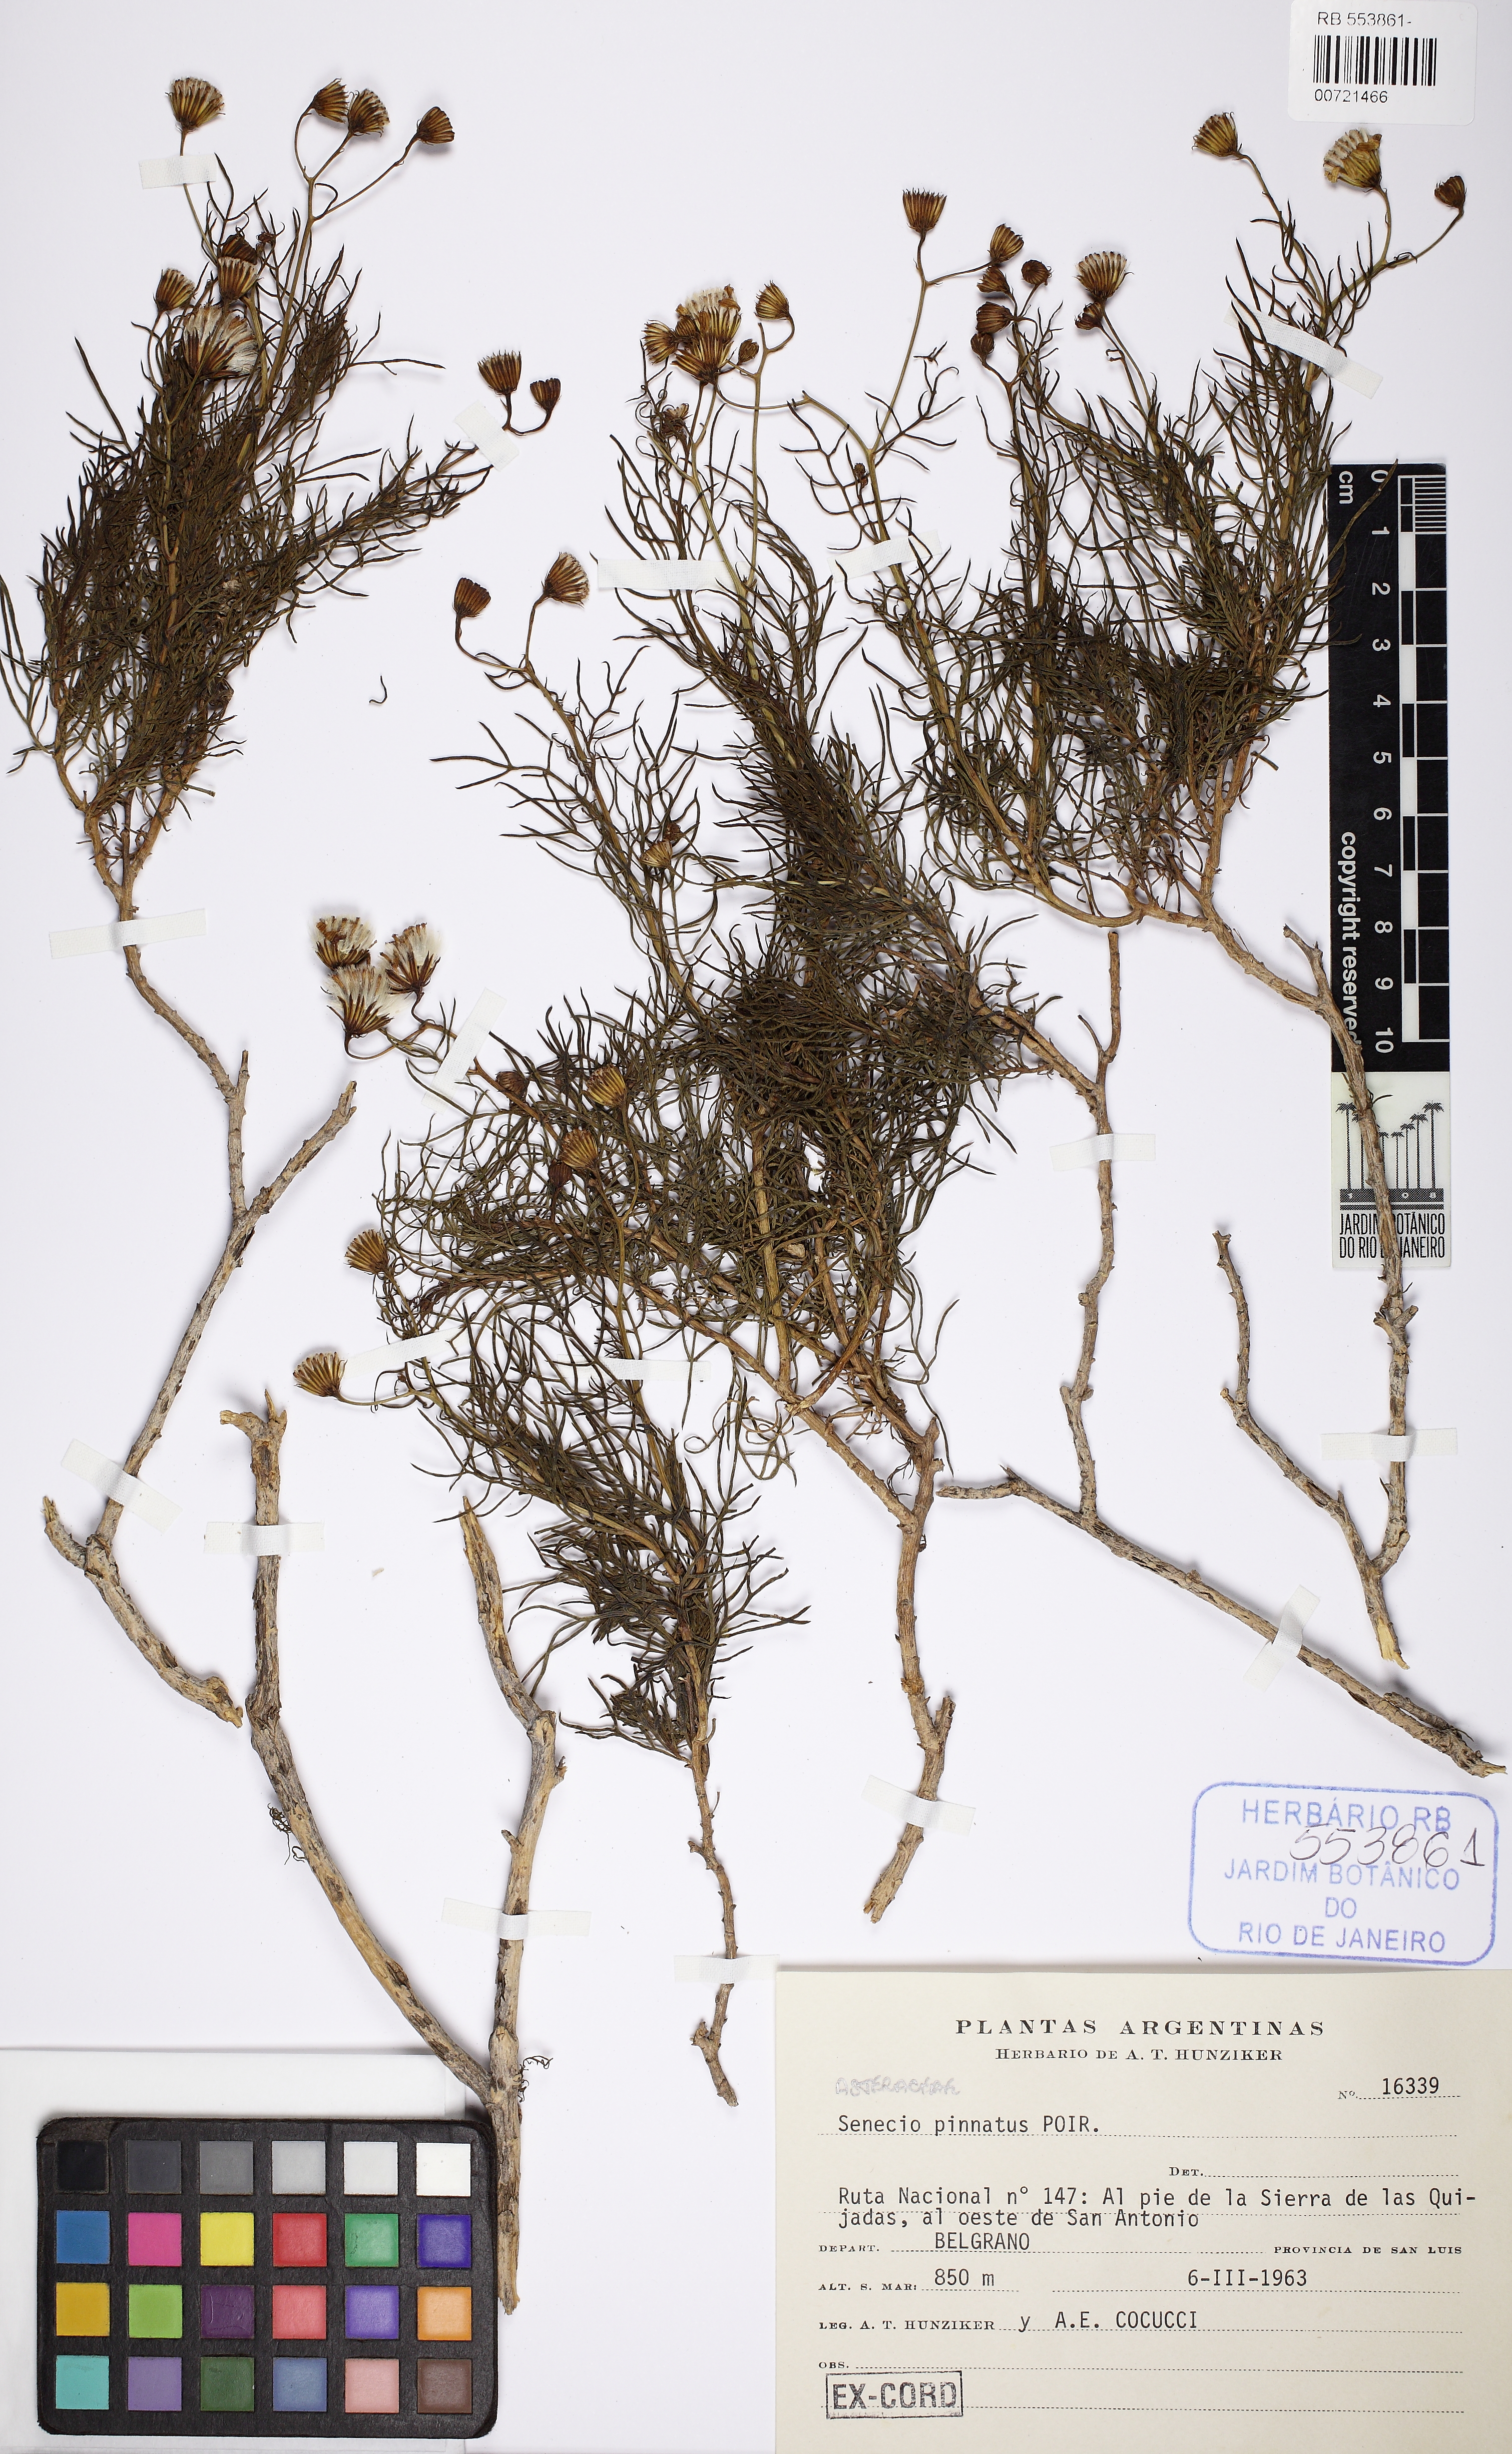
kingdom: Plantae
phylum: Tracheophyta
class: Magnoliopsida
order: Asterales
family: Asteraceae
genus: Senecio
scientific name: Senecio pinnatus
